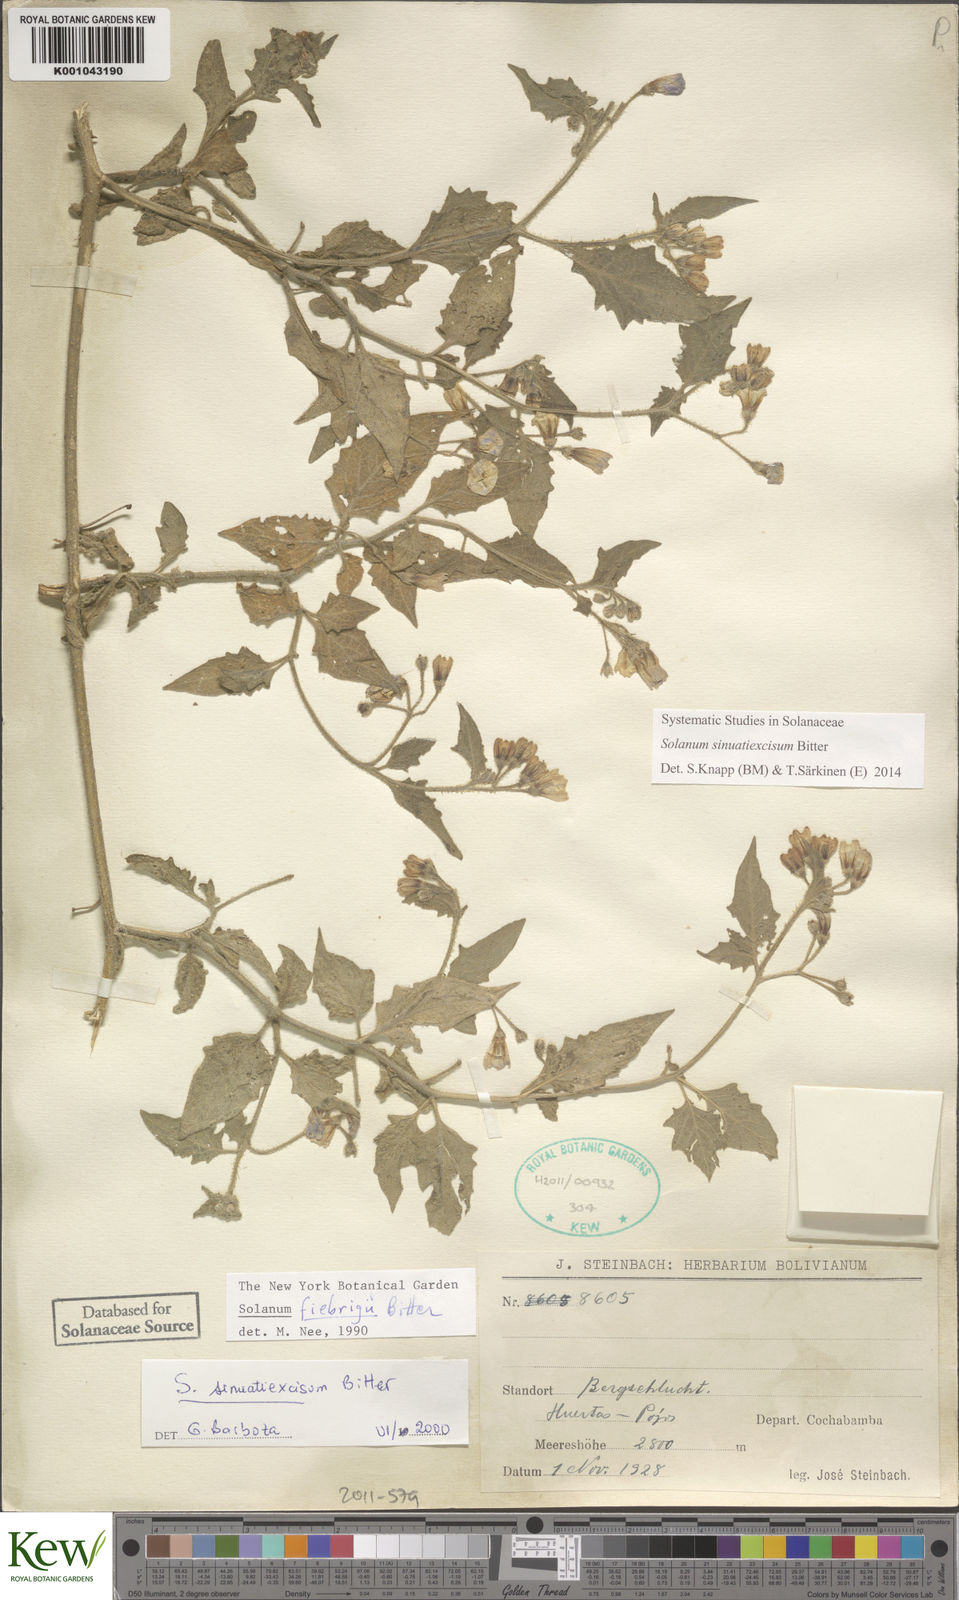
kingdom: Plantae
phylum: Tracheophyta
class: Magnoliopsida
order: Solanales
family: Solanaceae
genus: Solanum
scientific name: Solanum fiebrigii
